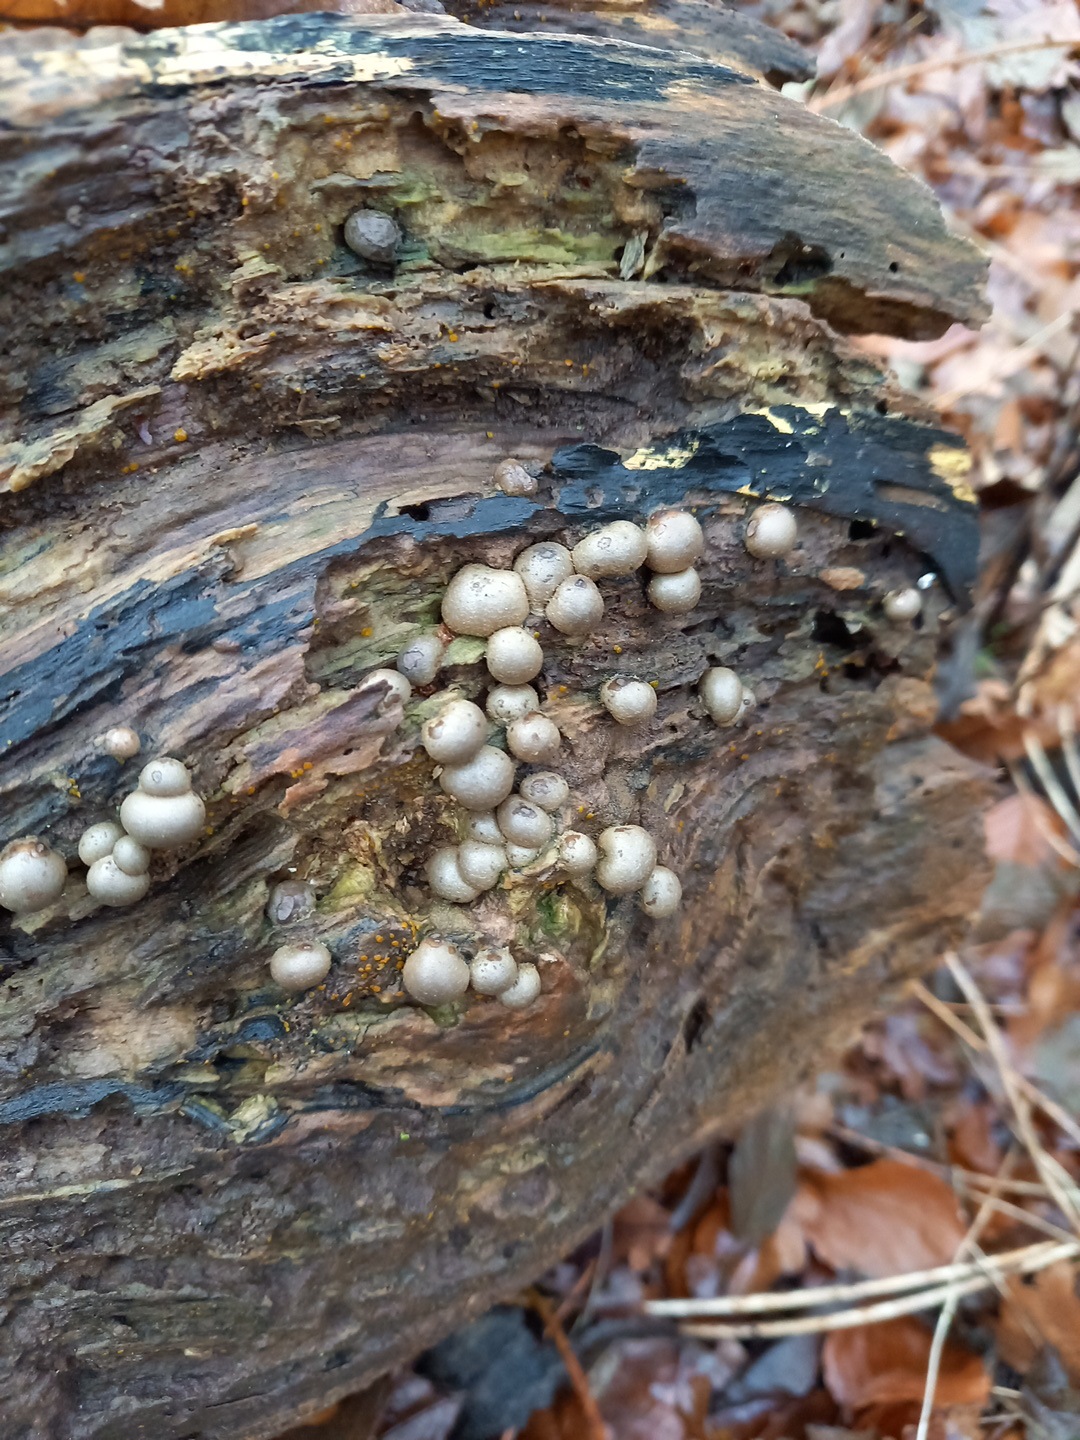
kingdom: Protozoa
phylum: Mycetozoa
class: Myxomycetes
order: Cribrariales
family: Tubiferaceae
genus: Lycogala
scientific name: Lycogala epidendrum
